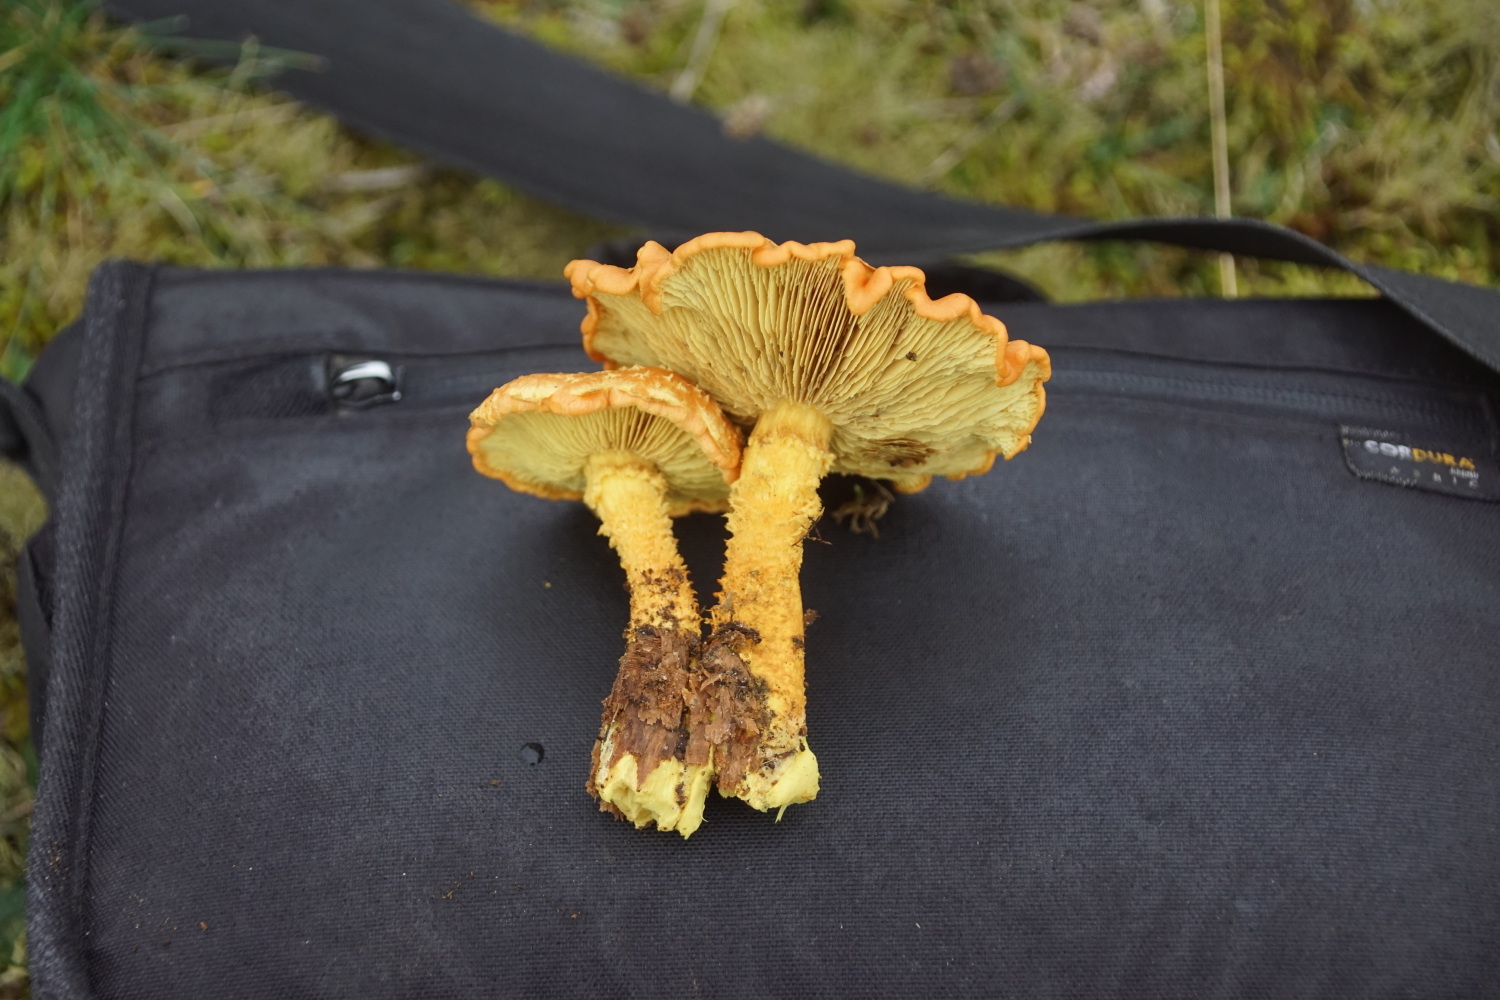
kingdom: Fungi
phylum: Basidiomycota
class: Agaricomycetes
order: Agaricales
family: Strophariaceae
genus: Pholiota
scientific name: Pholiota flammans
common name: flamme-skælhat
